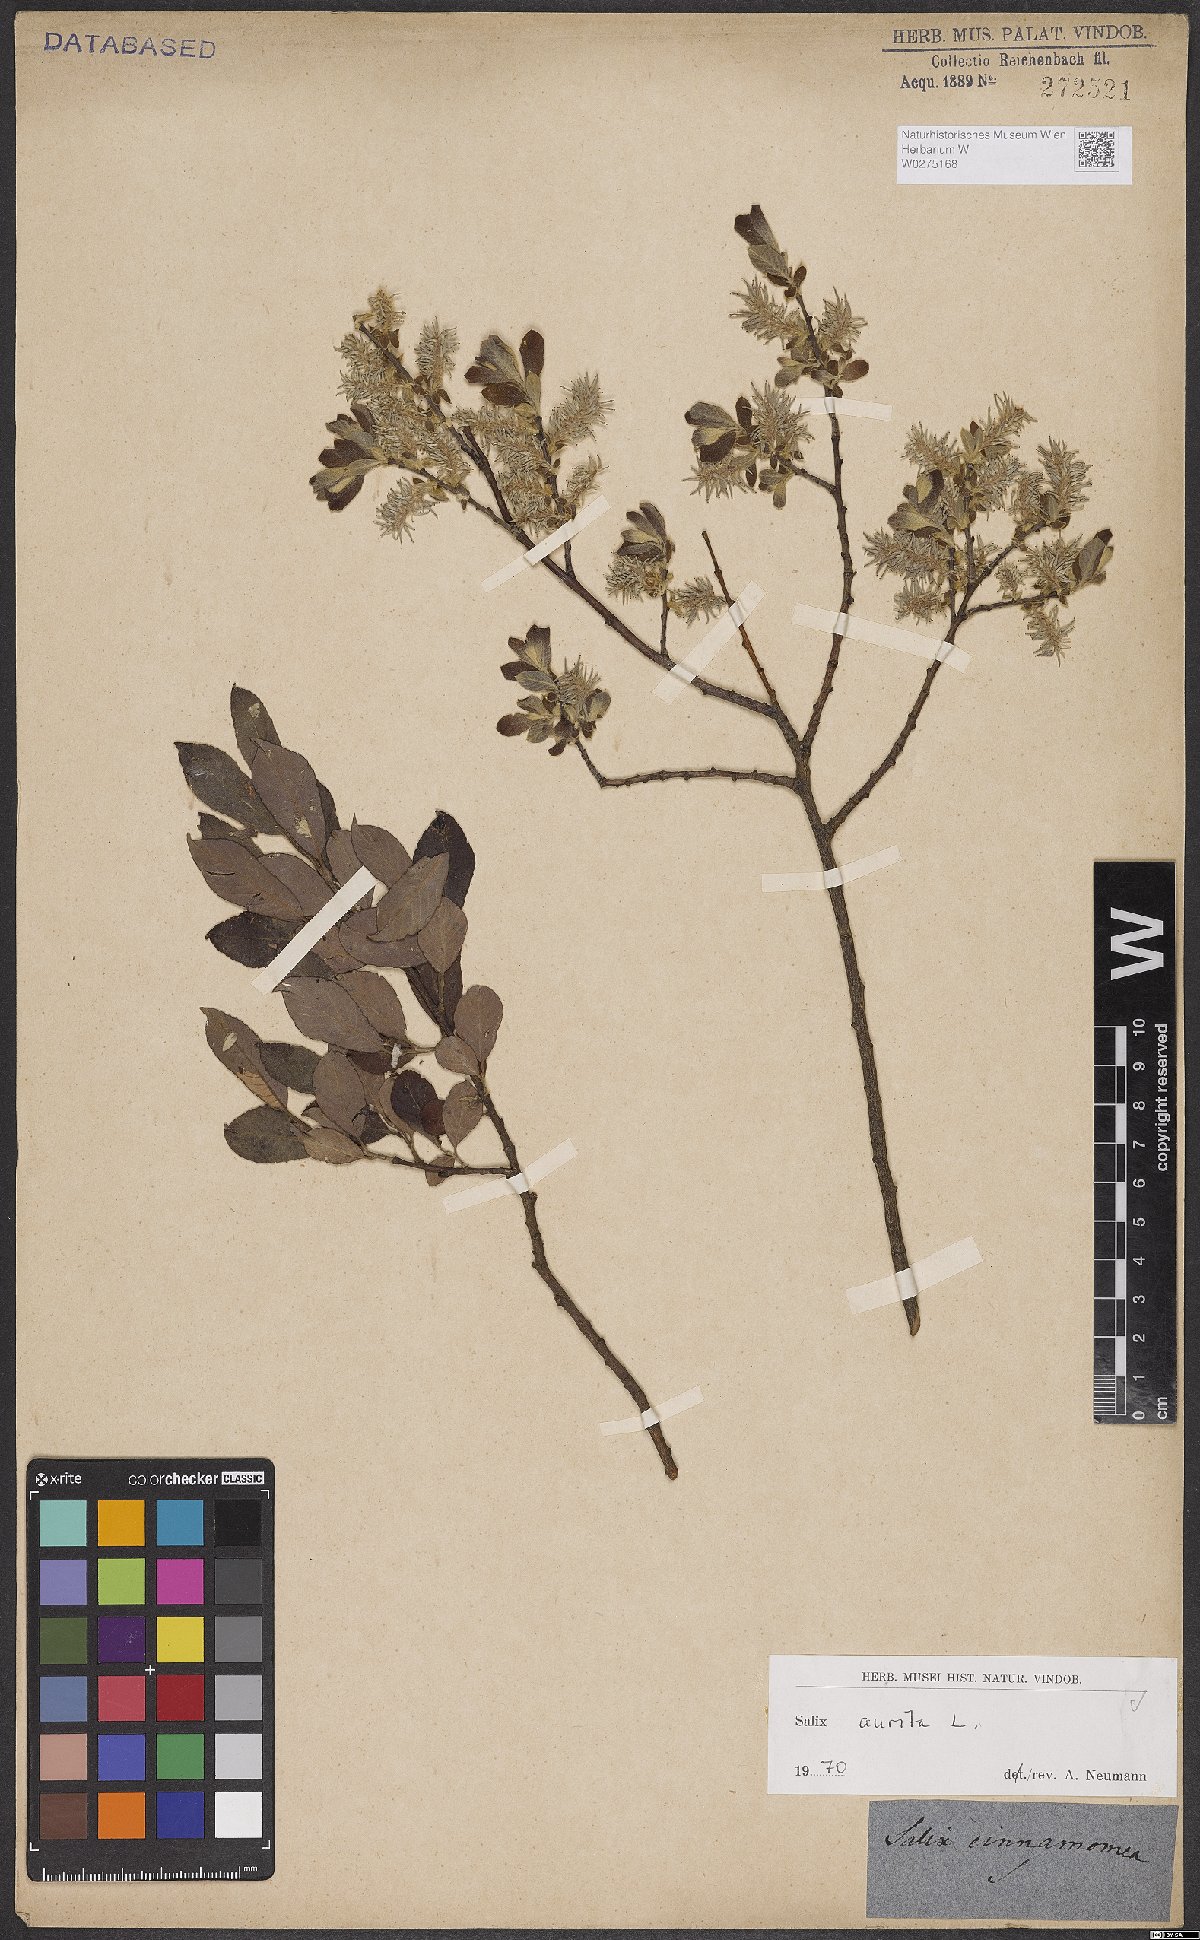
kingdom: Plantae
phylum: Tracheophyta
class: Magnoliopsida
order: Malpighiales
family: Salicaceae
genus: Salix
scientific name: Salix aurita
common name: Eared willow
